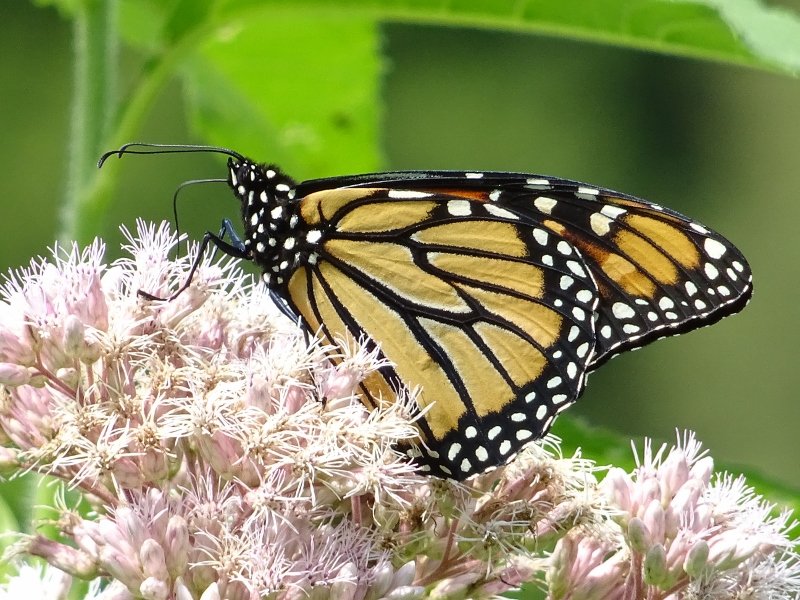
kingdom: Animalia
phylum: Arthropoda
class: Insecta
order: Lepidoptera
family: Nymphalidae
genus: Danaus
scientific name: Danaus plexippus
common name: Monarch
